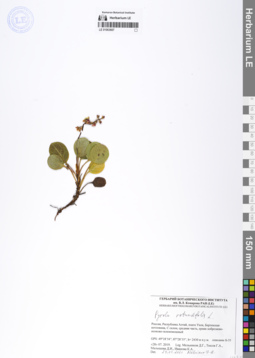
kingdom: Plantae
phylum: Tracheophyta
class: Magnoliopsida
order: Ericales
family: Ericaceae
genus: Pyrola
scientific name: Pyrola rotundifolia
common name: Round-leaved wintergreen
